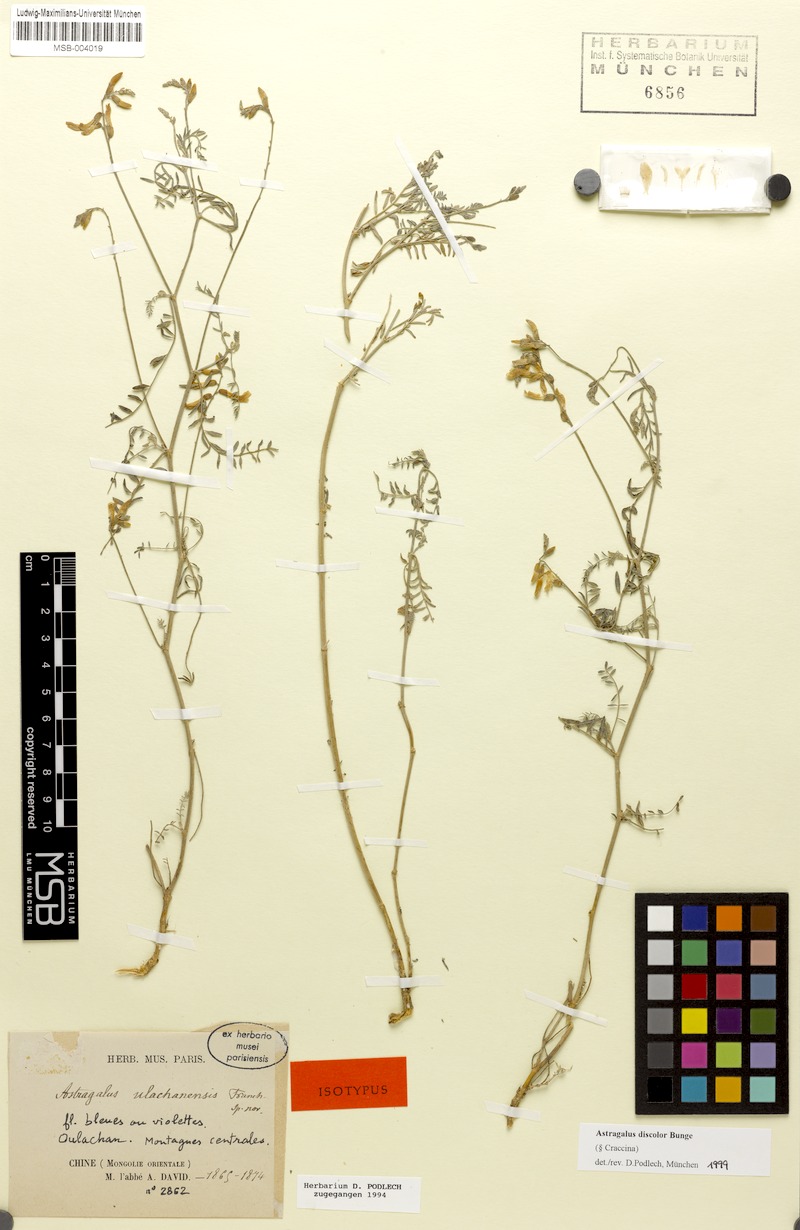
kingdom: Plantae
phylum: Tracheophyta
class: Magnoliopsida
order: Fabales
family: Fabaceae
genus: Astragalus
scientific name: Astragalus discolor
